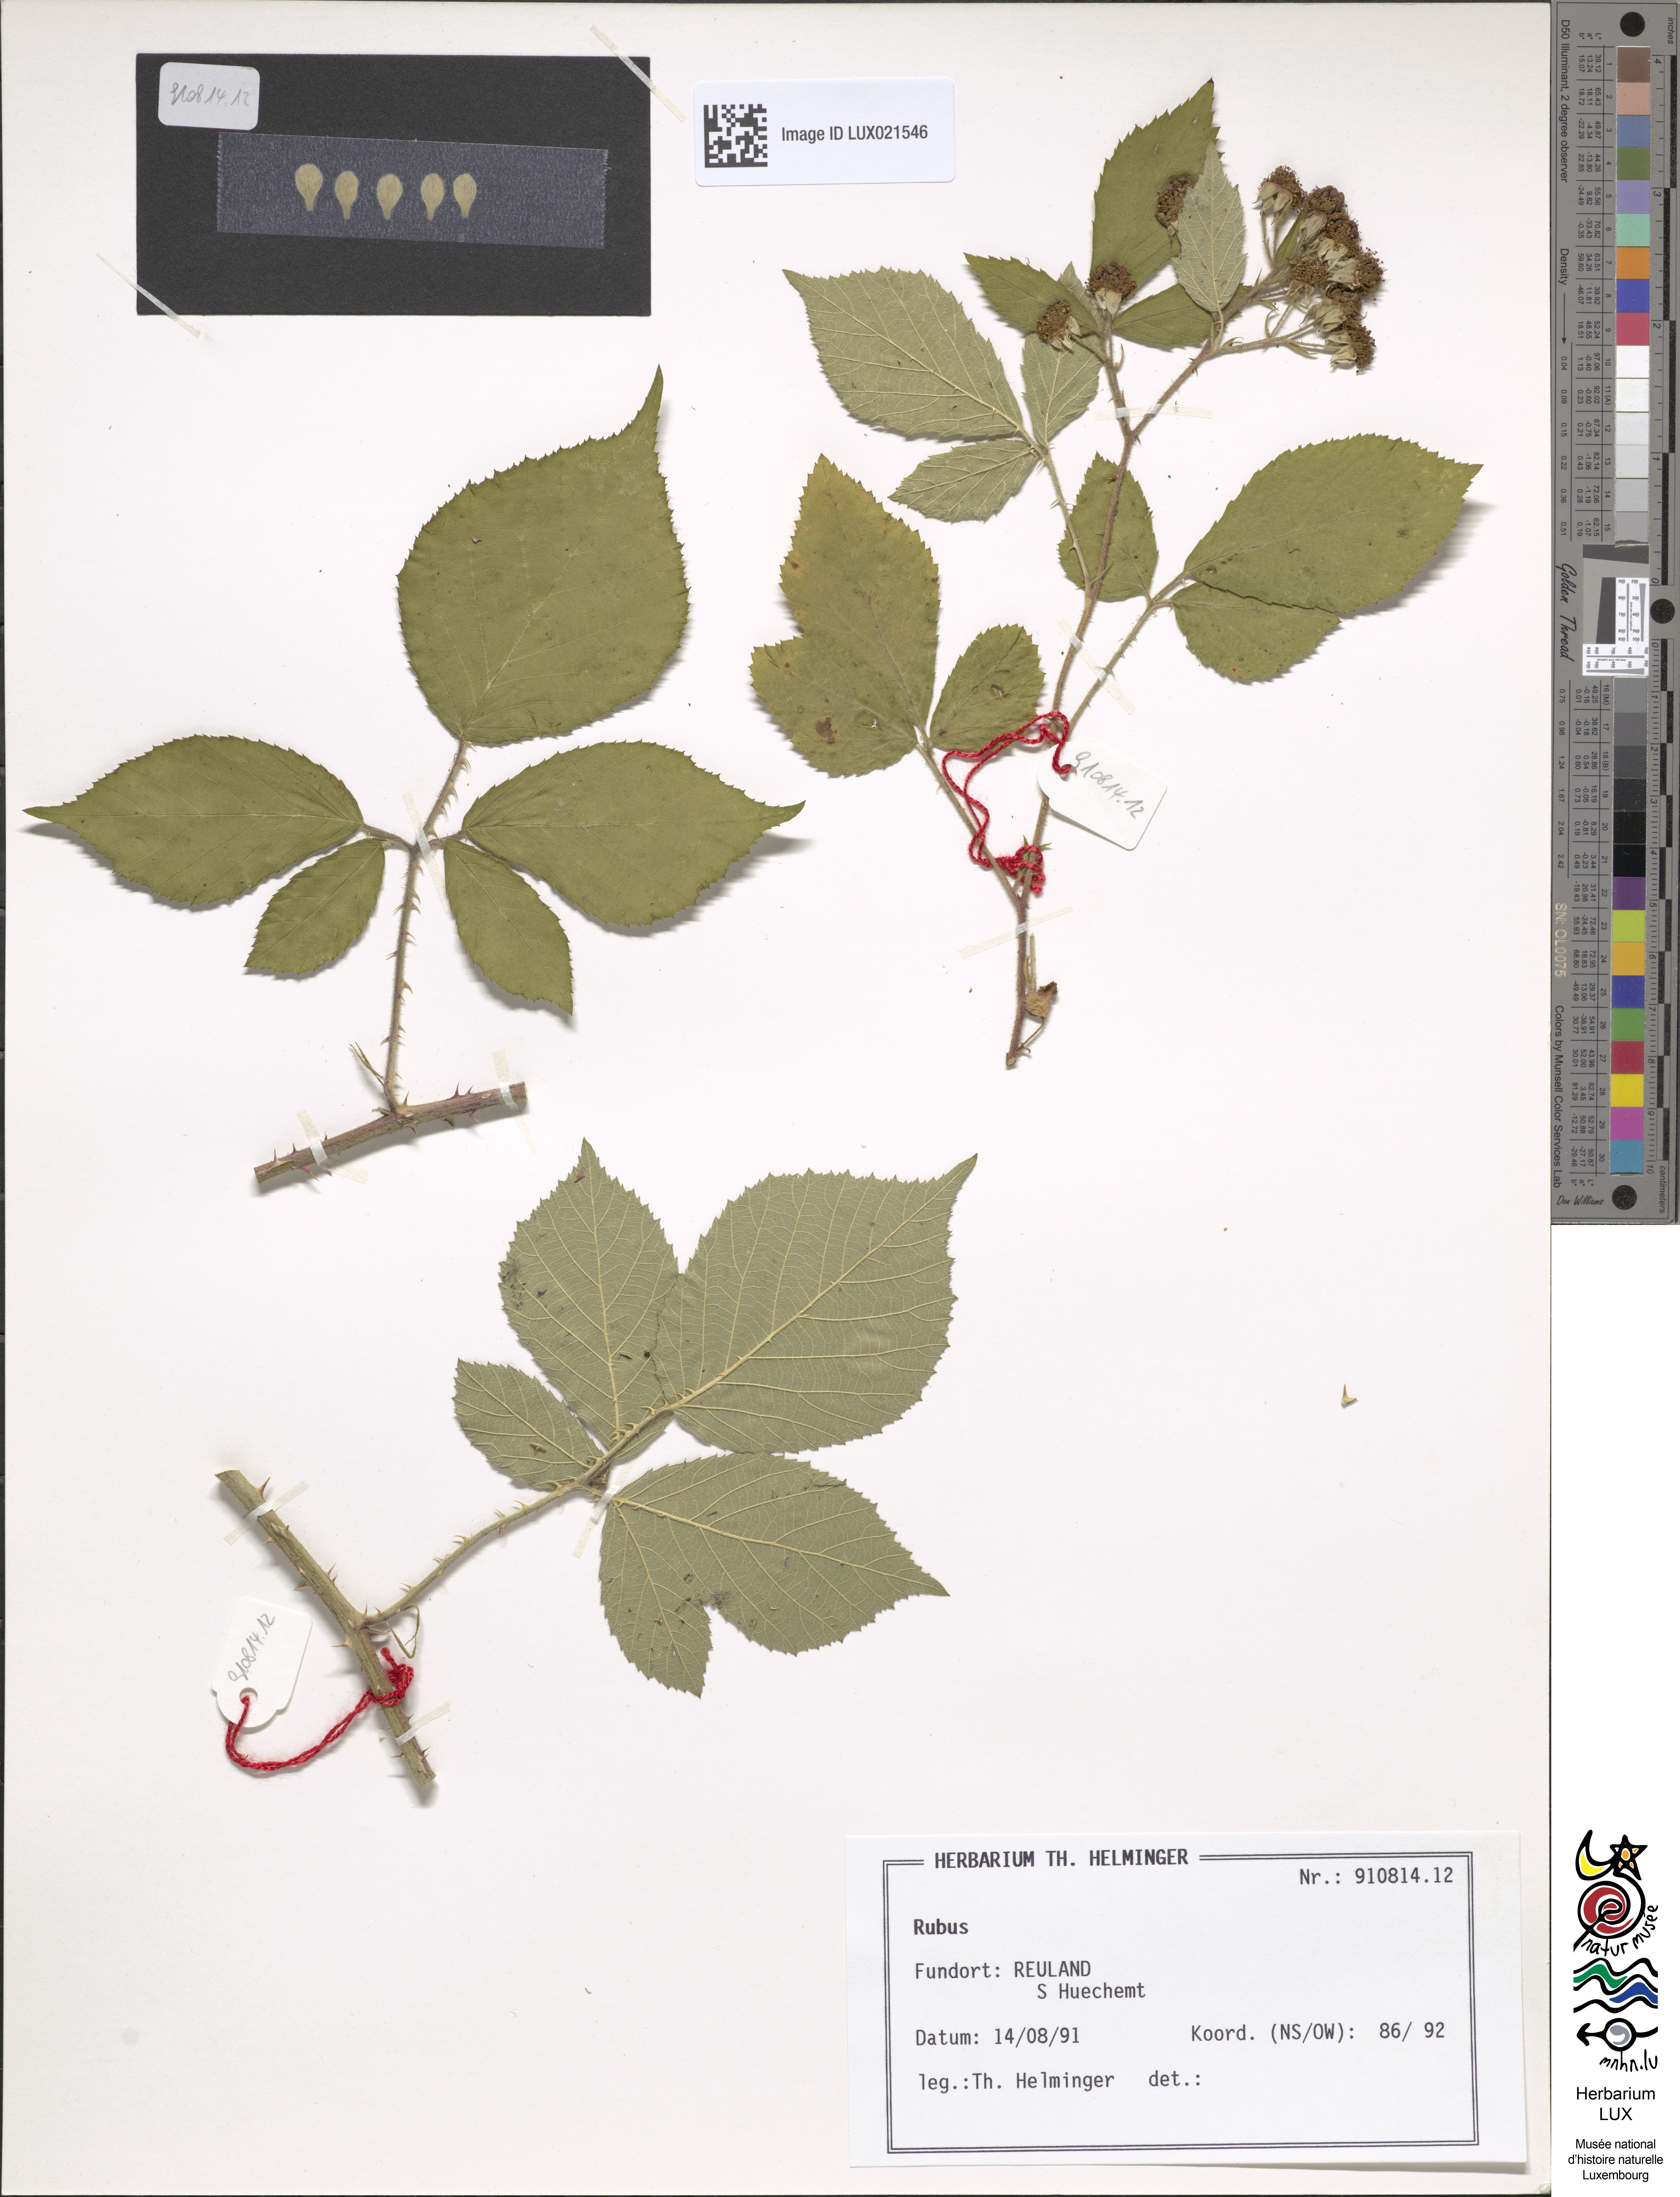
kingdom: Plantae
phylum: Tracheophyta
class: Magnoliopsida
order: Rosales
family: Rosaceae
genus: Rubus
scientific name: Rubus
